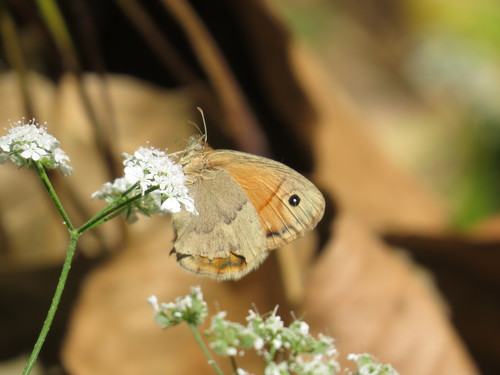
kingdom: Animalia
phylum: Arthropoda
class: Insecta
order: Lepidoptera
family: Nymphalidae
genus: Coenonympha
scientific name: Coenonympha pamphilus
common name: Small heath
